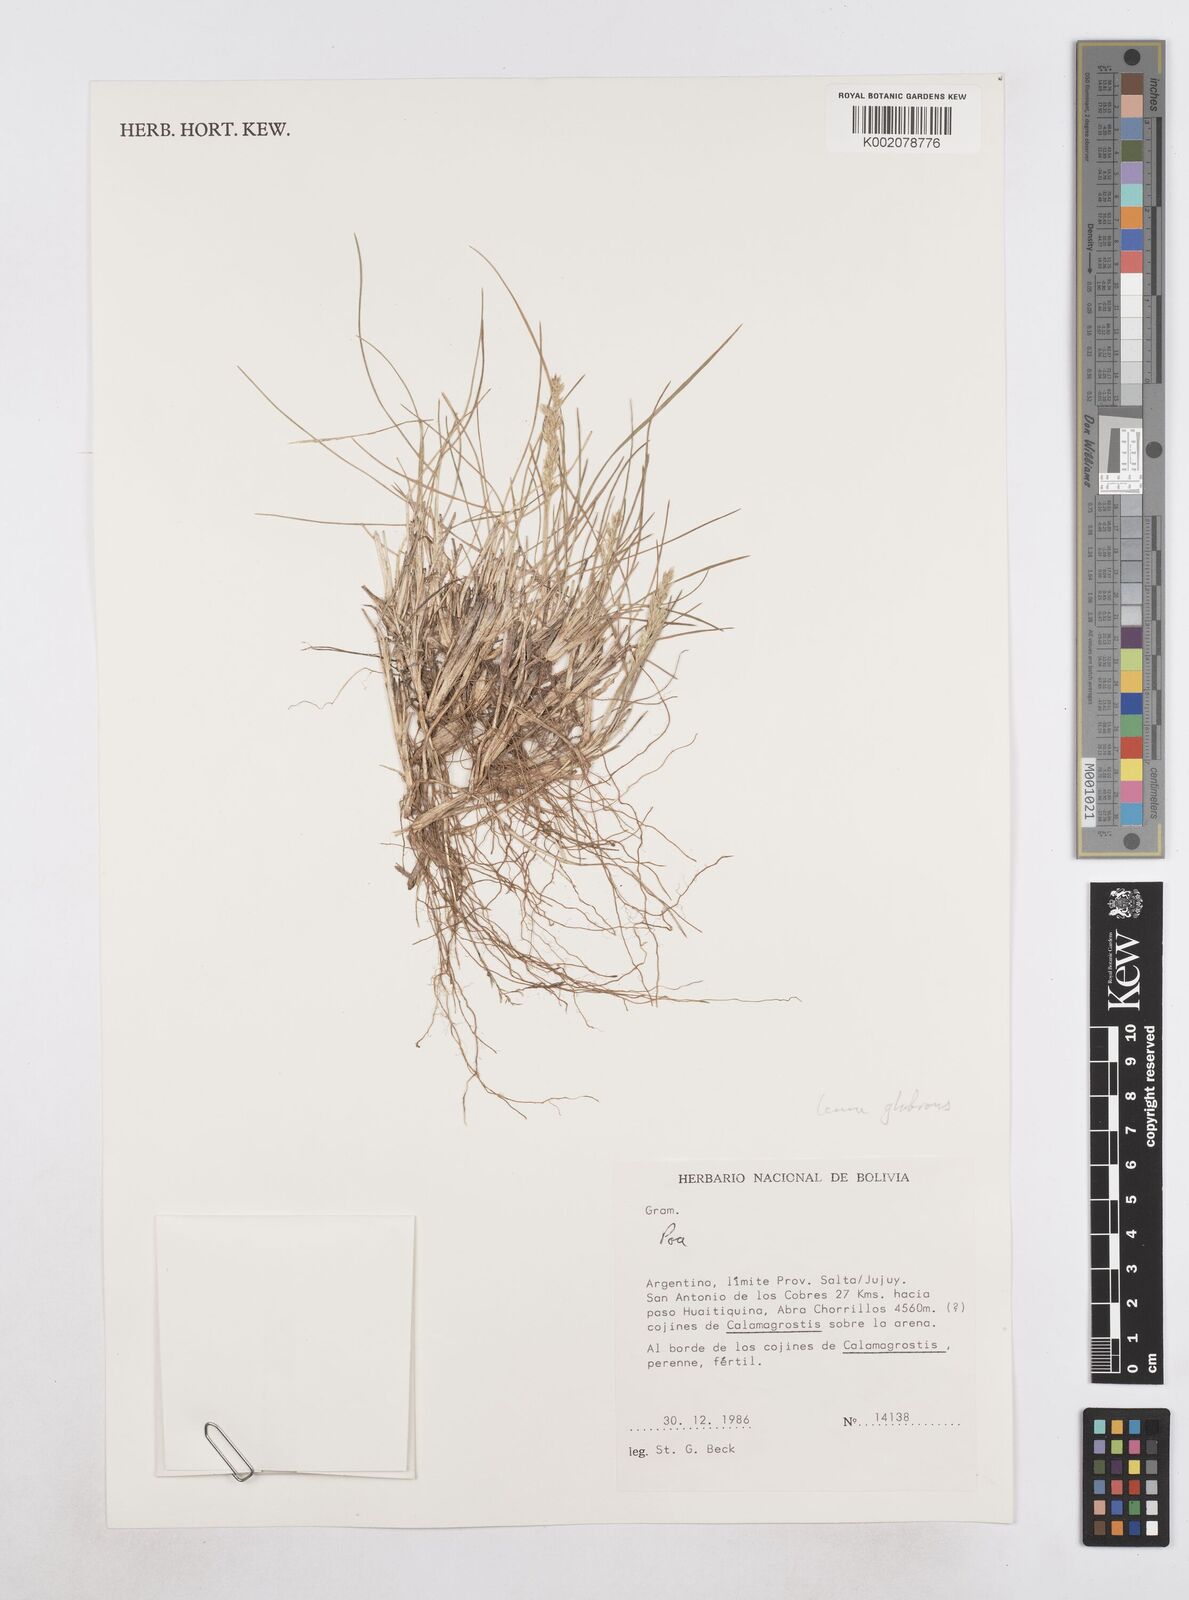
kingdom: Plantae
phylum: Tracheophyta
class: Liliopsida
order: Poales
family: Poaceae
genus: Poa
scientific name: Poa
